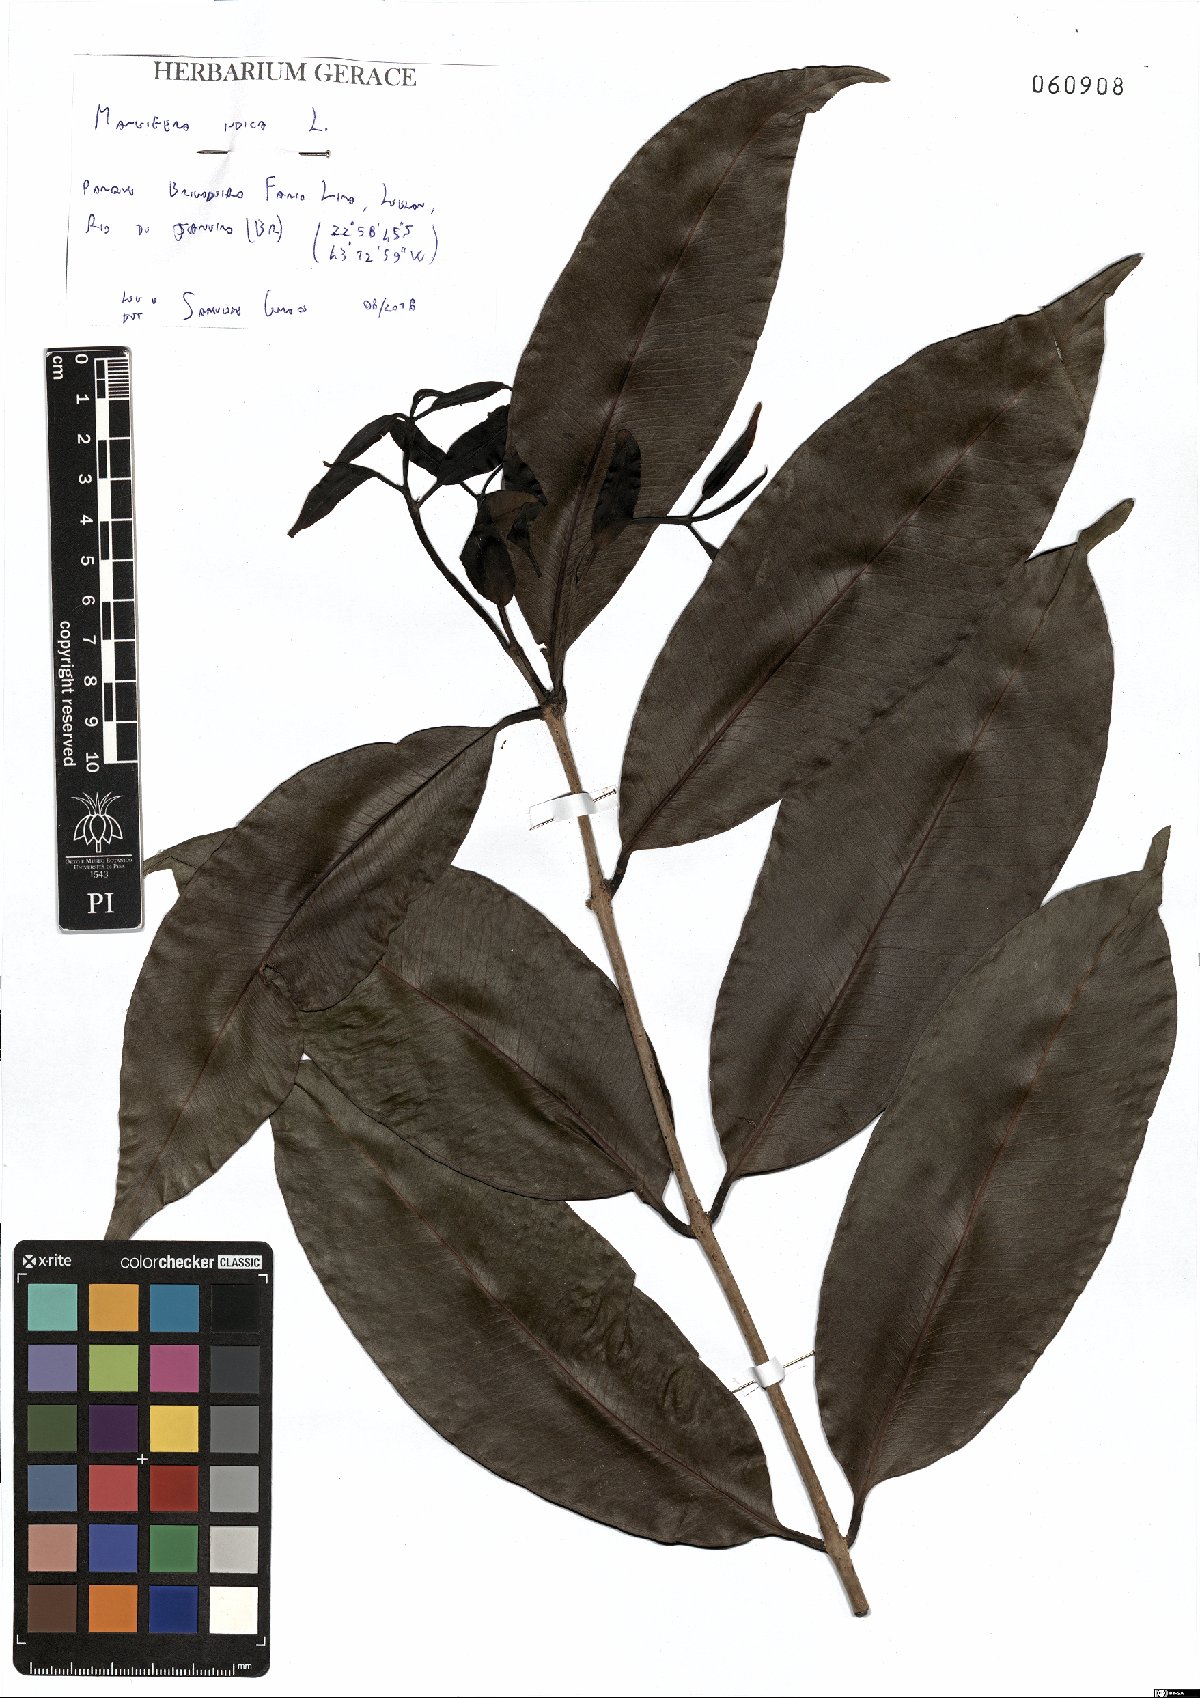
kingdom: Plantae
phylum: Tracheophyta
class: Magnoliopsida
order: Sapindales
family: Anacardiaceae
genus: Mangifera
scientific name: Mangifera indica
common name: Mango
